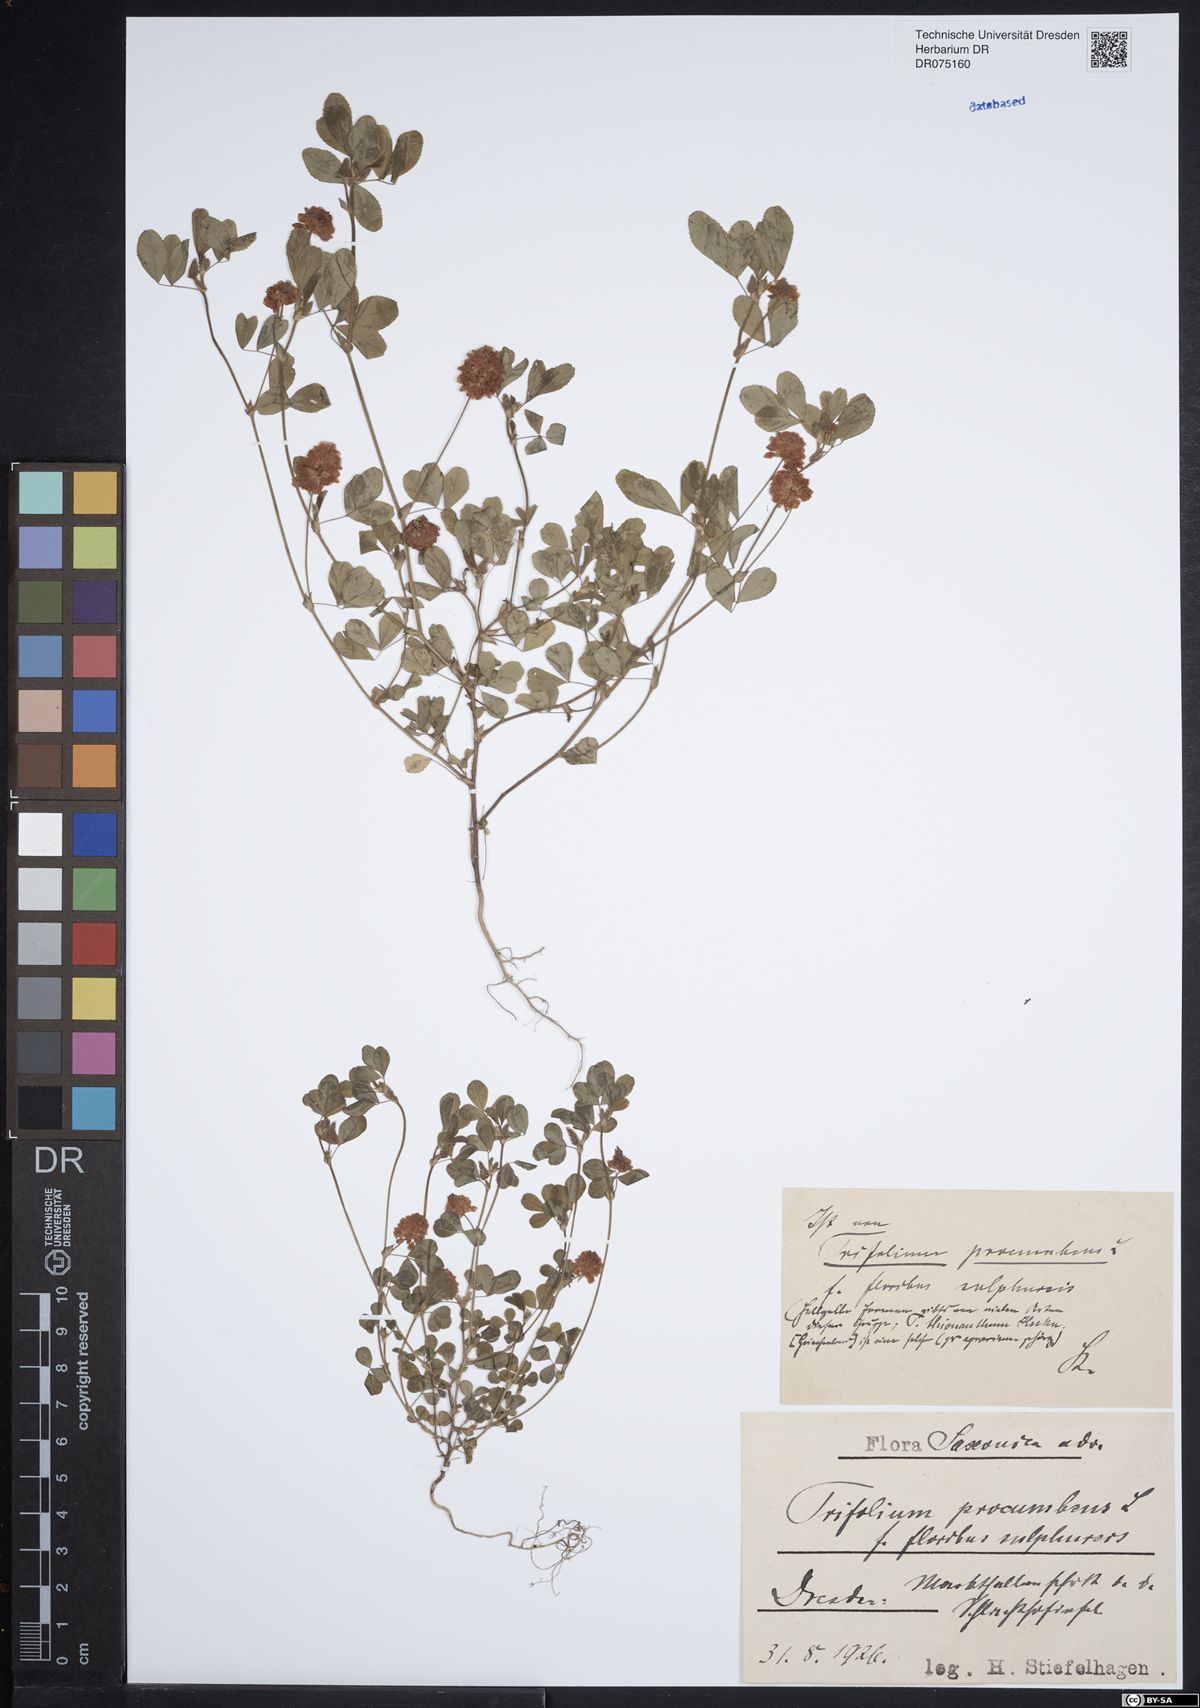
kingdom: Plantae
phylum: Tracheophyta
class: Magnoliopsida
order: Fabales
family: Fabaceae
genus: Trifolium
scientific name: Trifolium campestre
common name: Field clover
